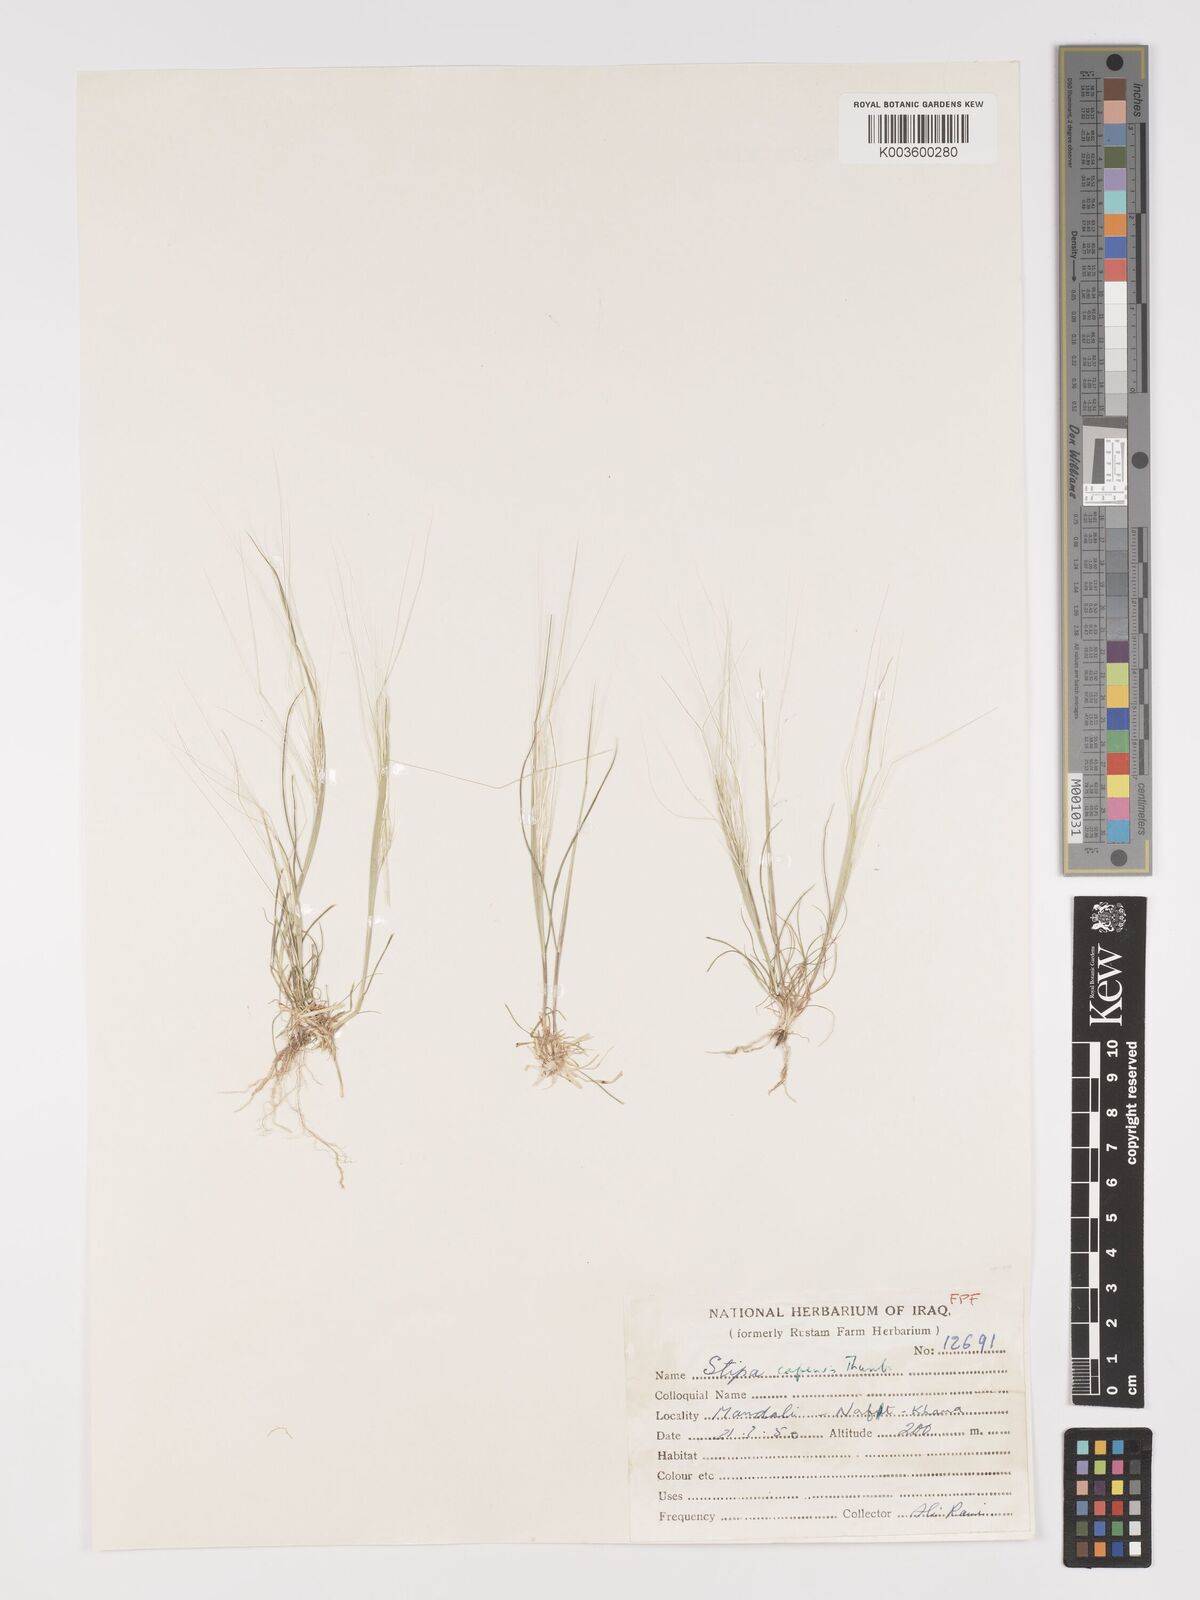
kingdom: Plantae
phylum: Tracheophyta
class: Liliopsida
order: Poales
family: Poaceae
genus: Stipellula
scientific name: Stipellula capensis
